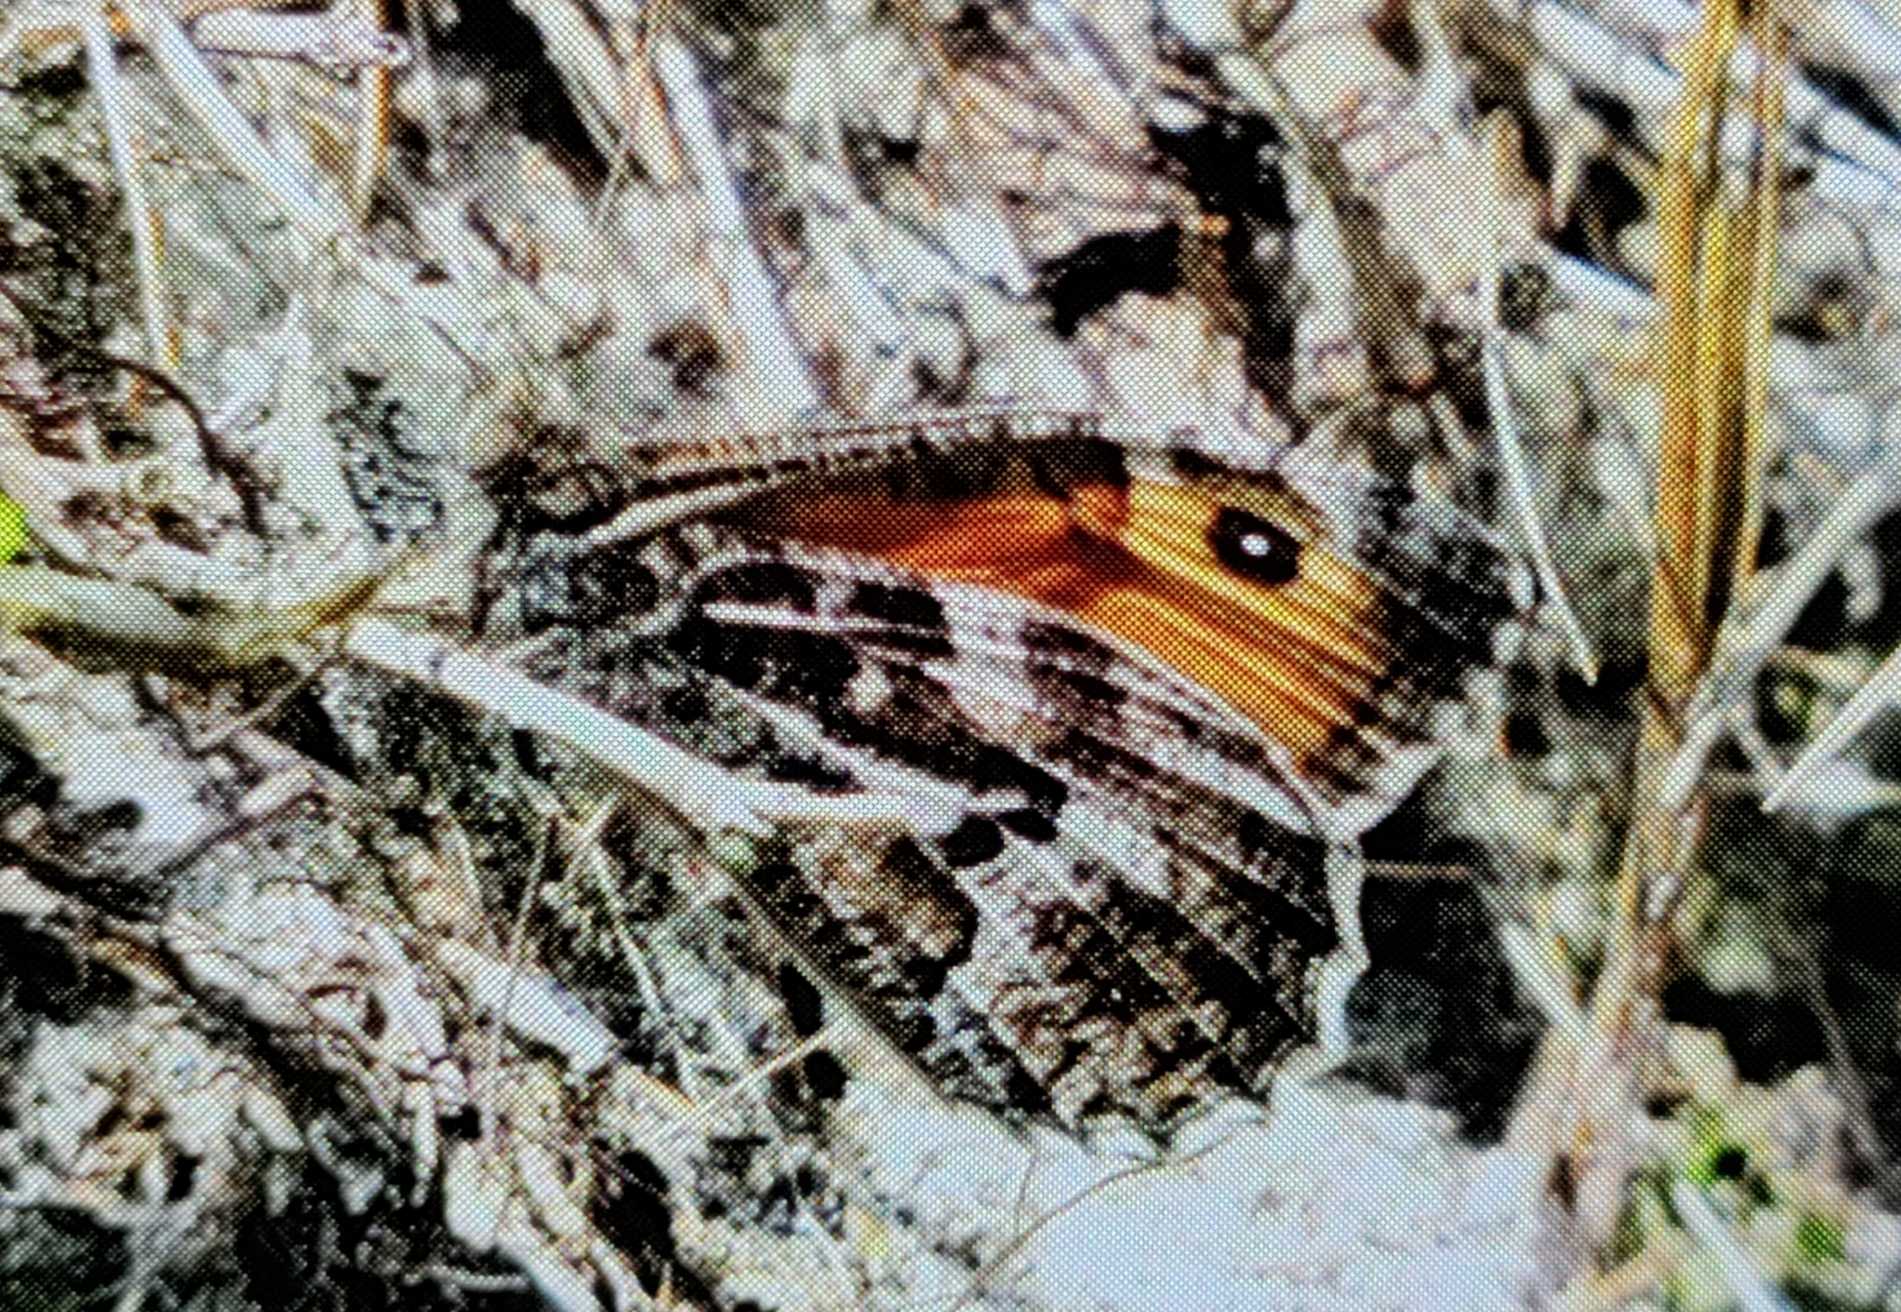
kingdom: Animalia
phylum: Arthropoda
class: Insecta
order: Lepidoptera
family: Nymphalidae
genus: Hipparchia
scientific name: Hipparchia semele
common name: Sandrandøje
